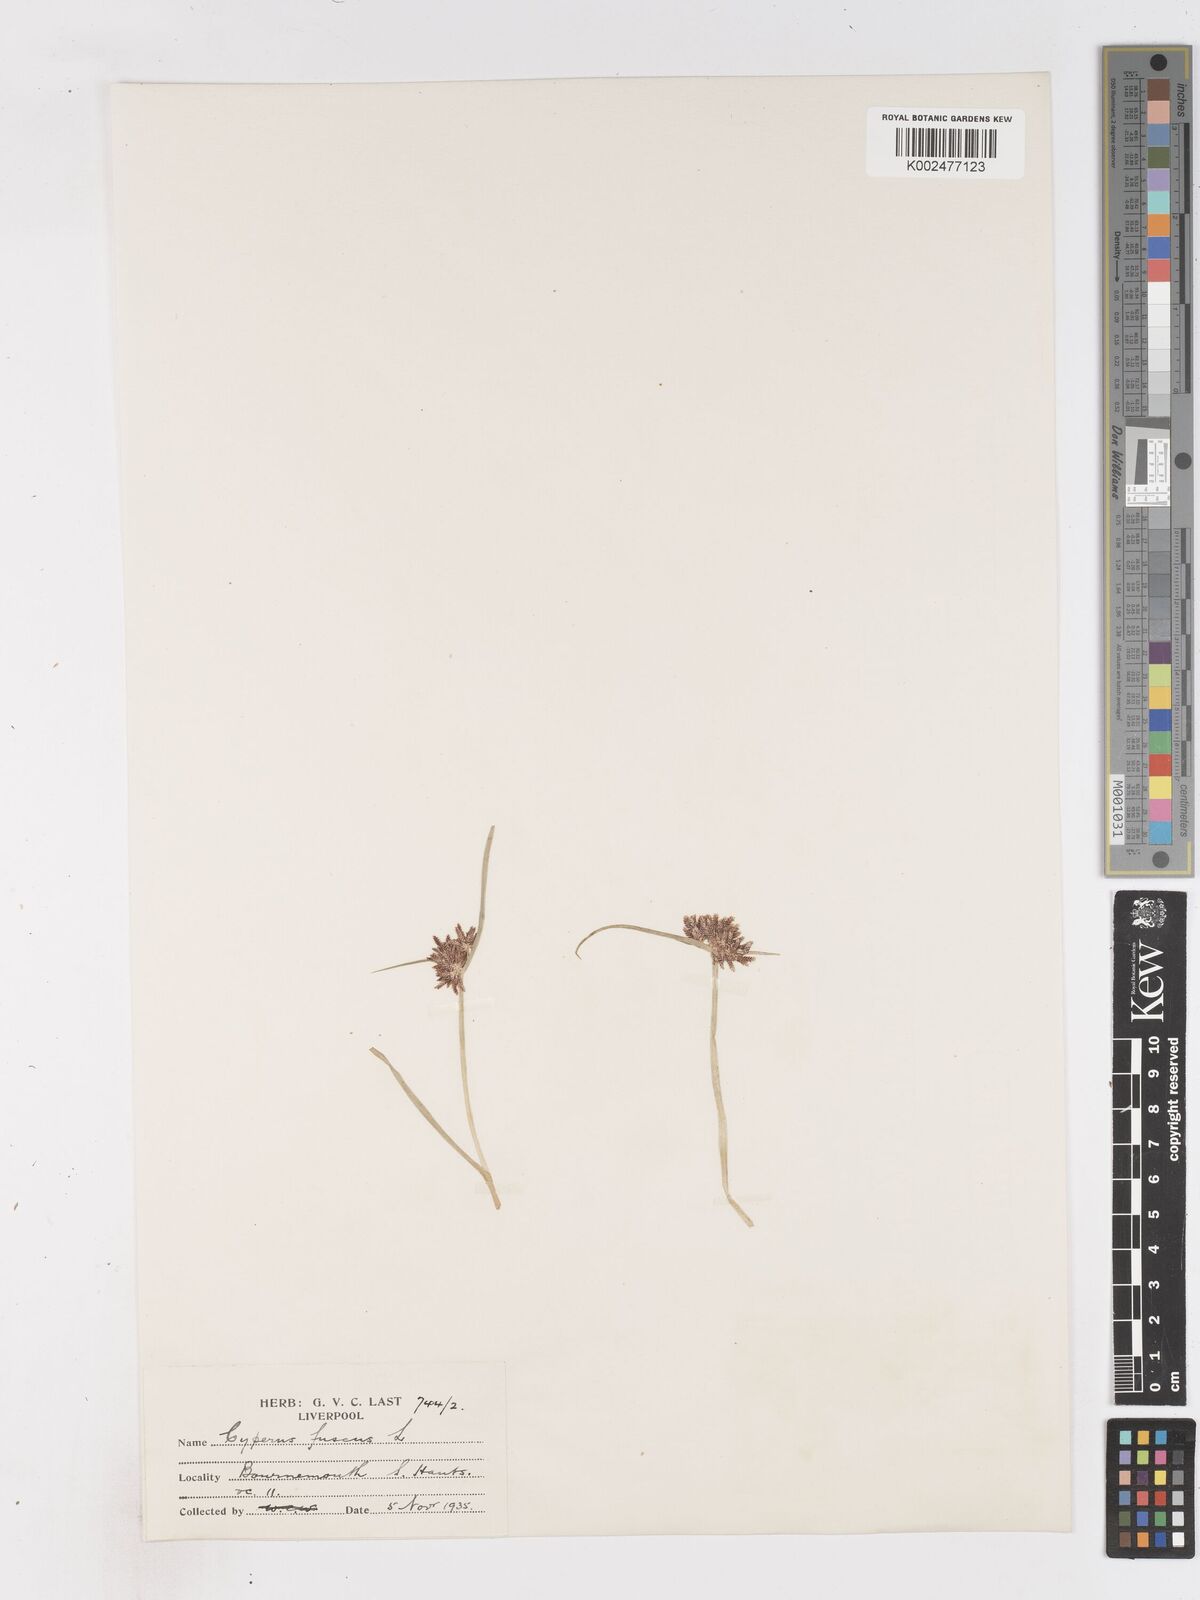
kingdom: Plantae
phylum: Tracheophyta
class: Liliopsida
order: Poales
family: Cyperaceae
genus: Cyperus
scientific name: Cyperus fuscus
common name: Brown galingale
